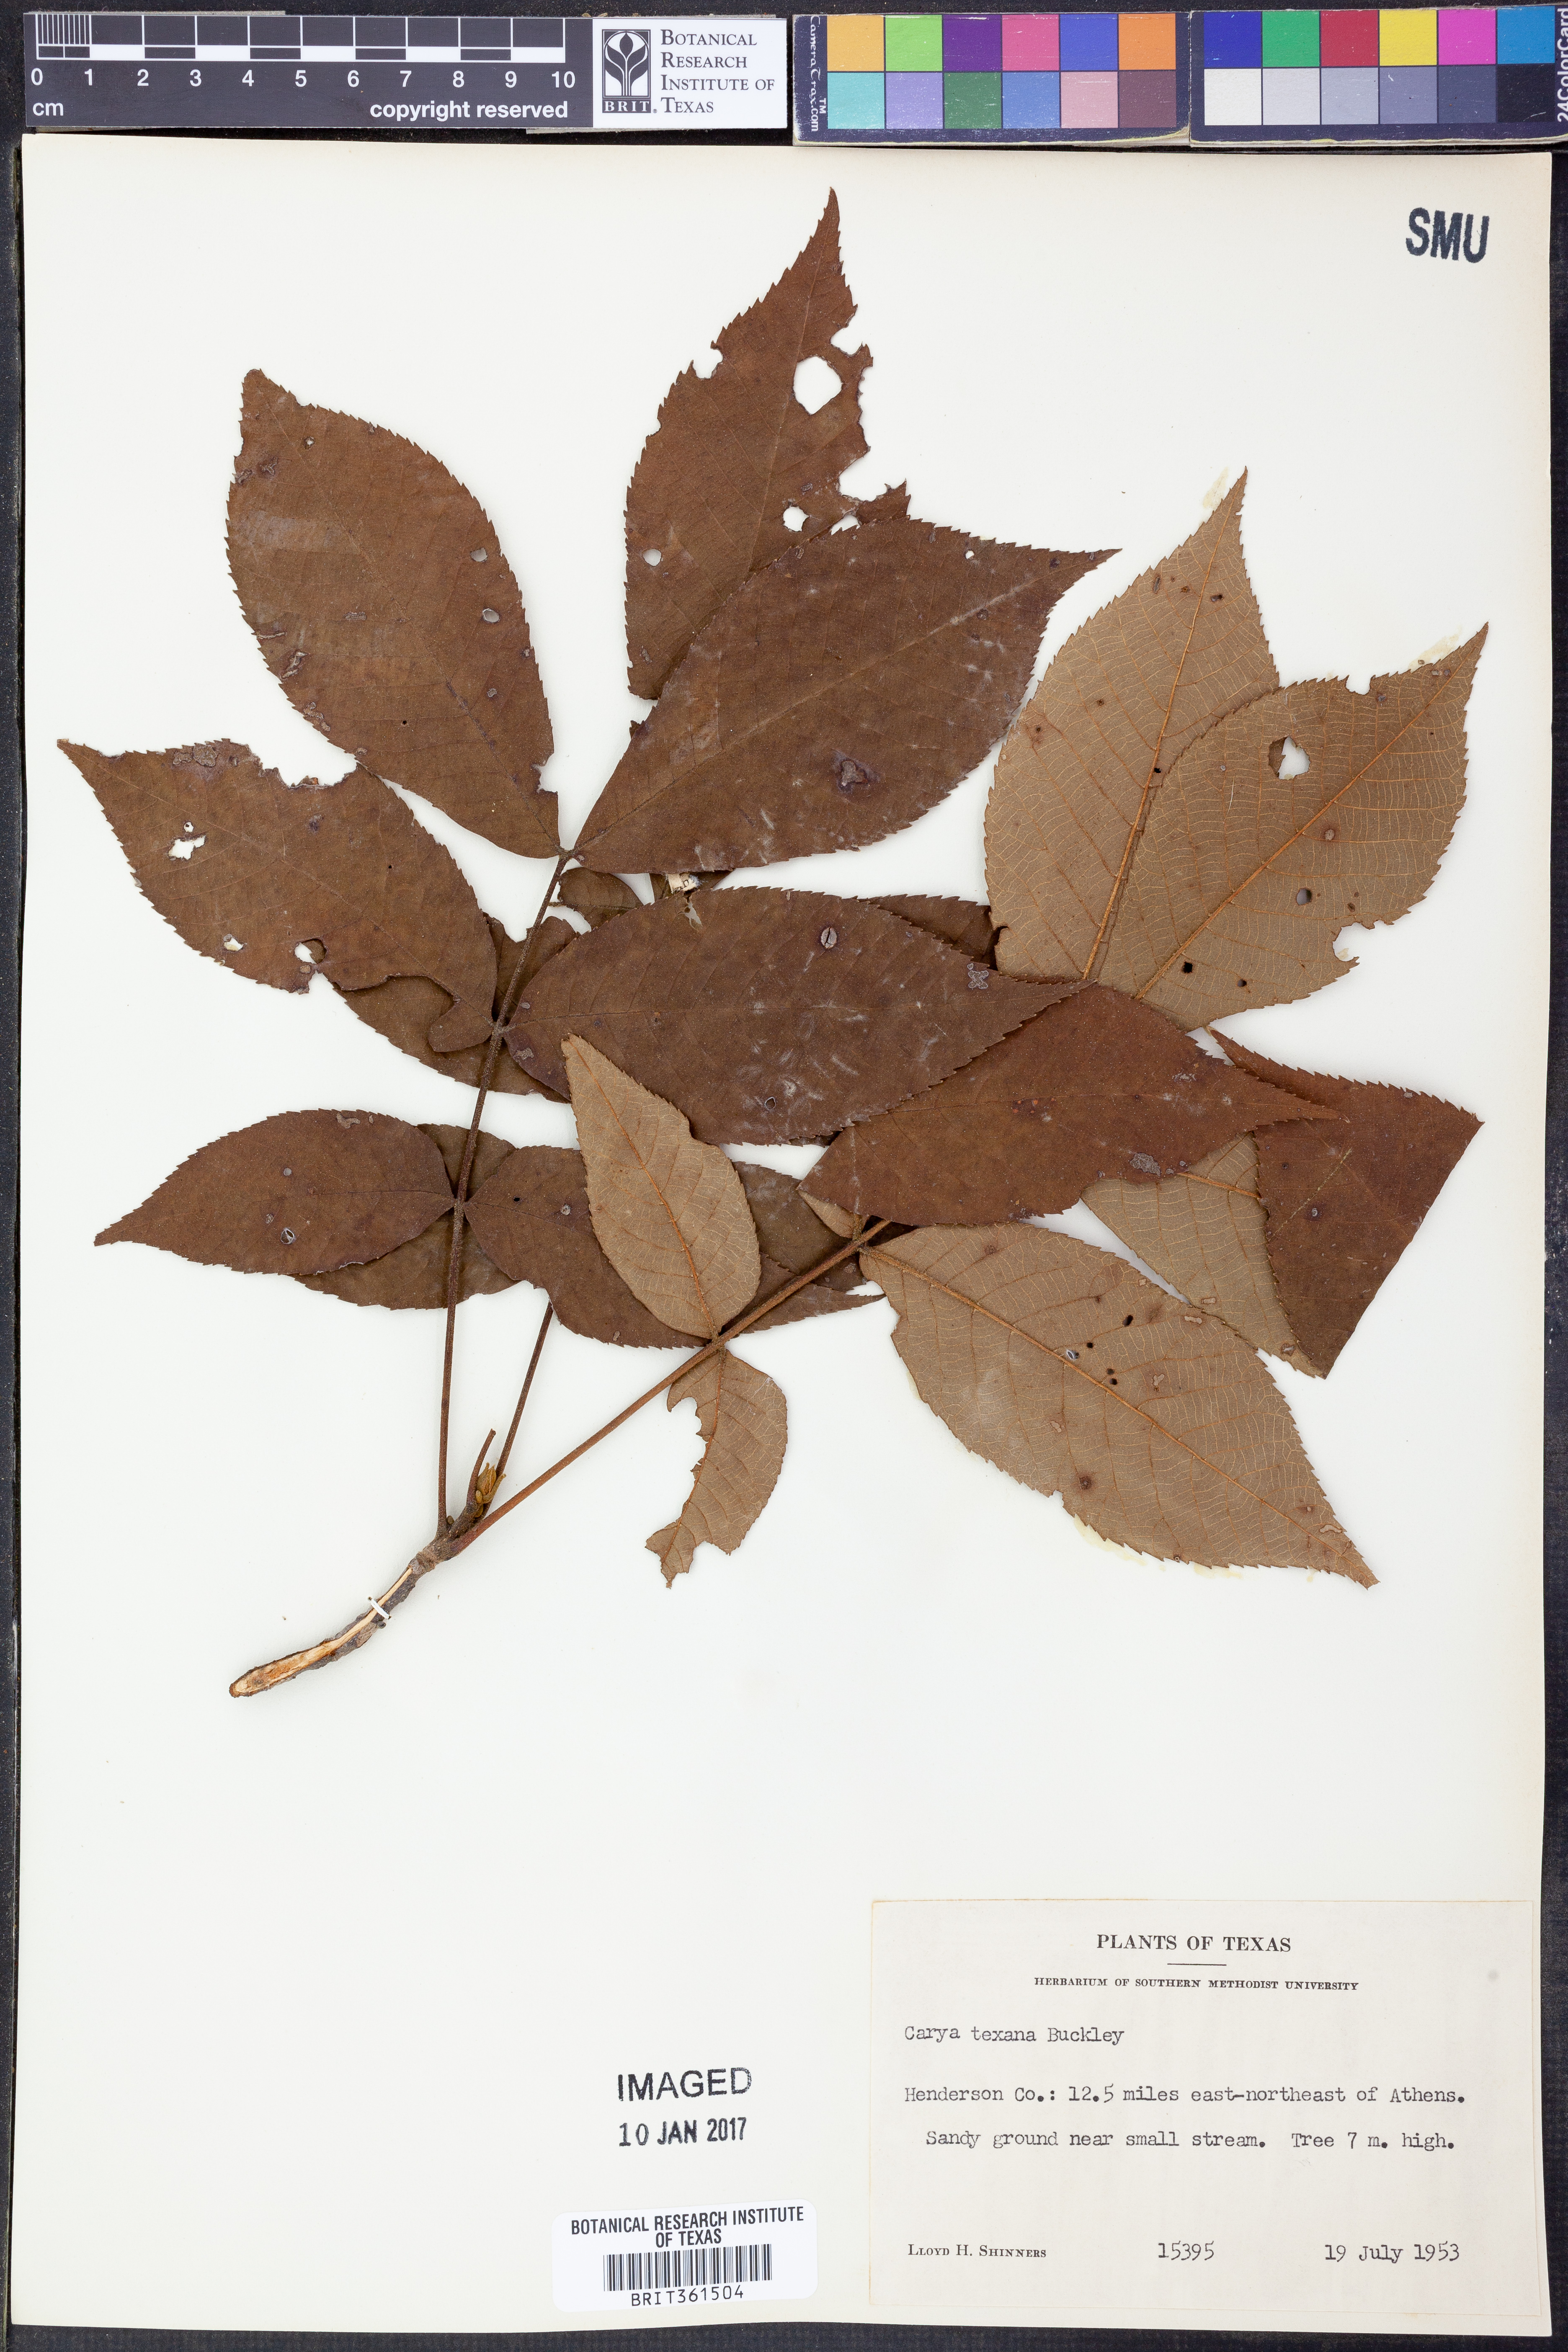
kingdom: Plantae
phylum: Tracheophyta
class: Magnoliopsida
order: Fagales
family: Juglandaceae
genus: Carya
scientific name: Carya texana
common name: Black hickory
